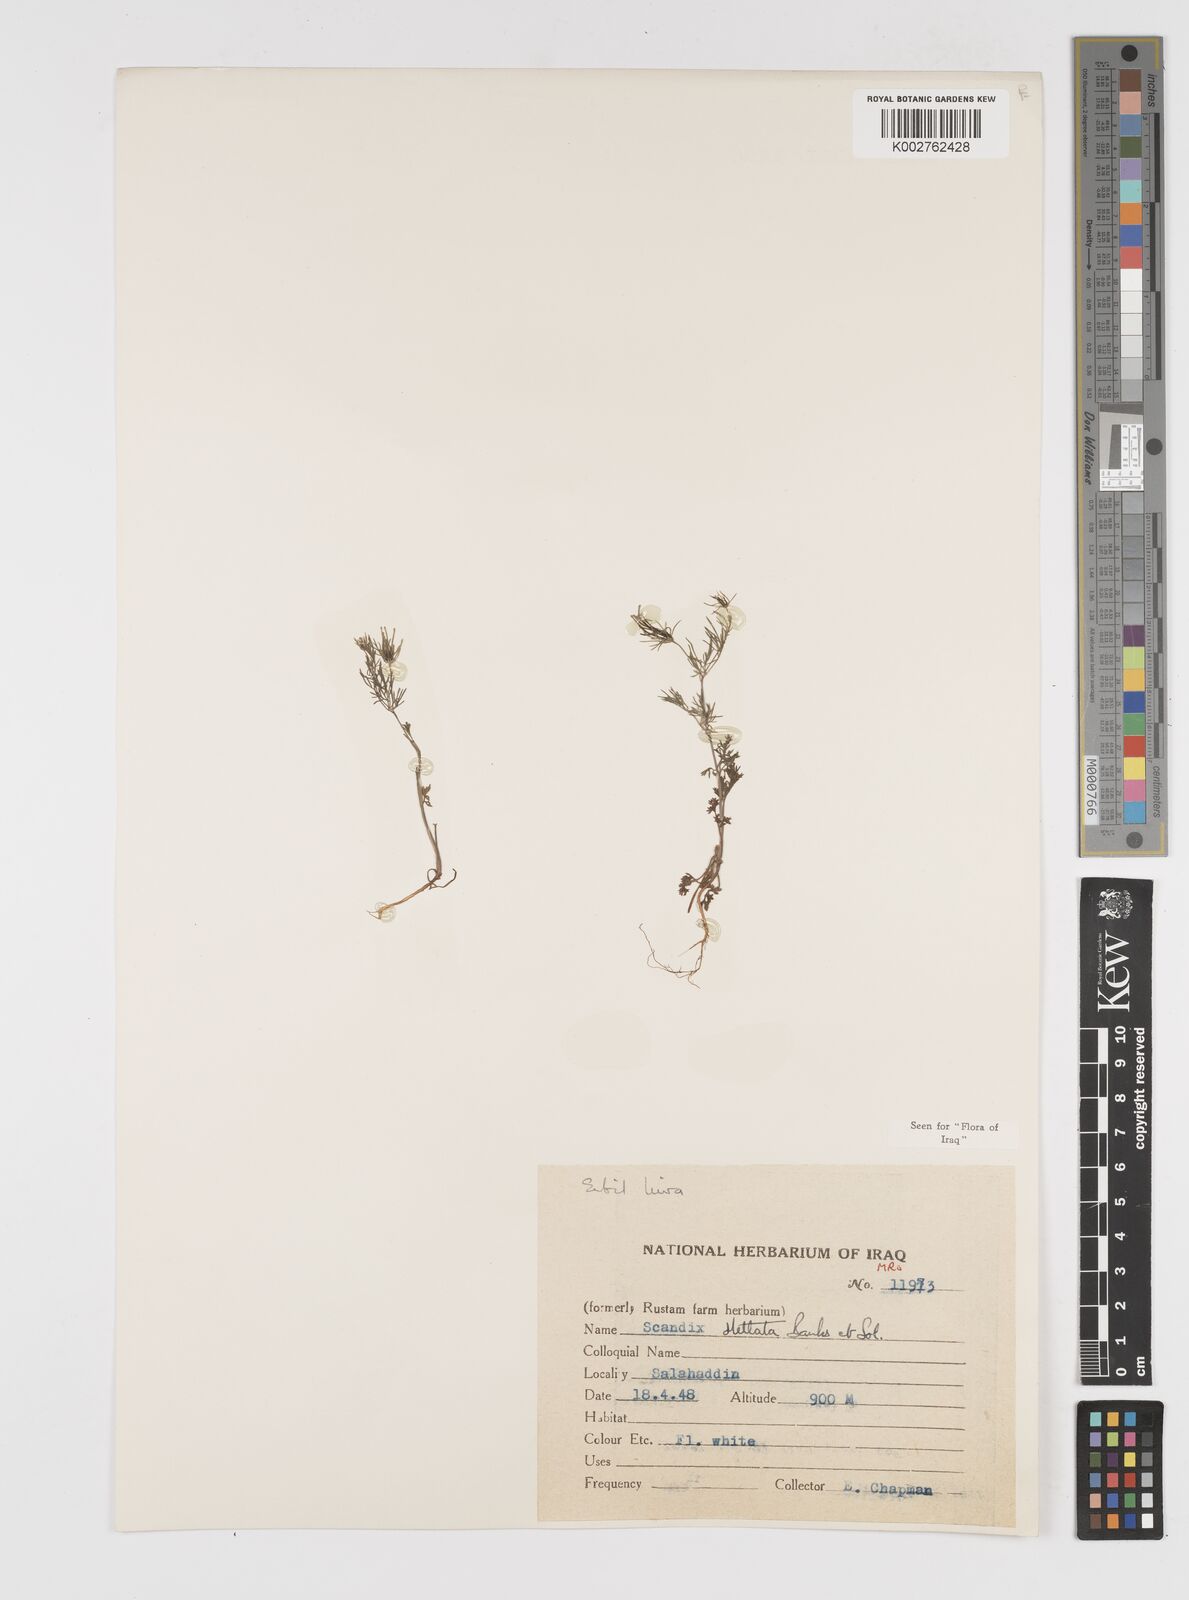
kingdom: Plantae
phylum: Tracheophyta
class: Magnoliopsida
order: Apiales
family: Apiaceae
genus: Scandix
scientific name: Scandix stellata
